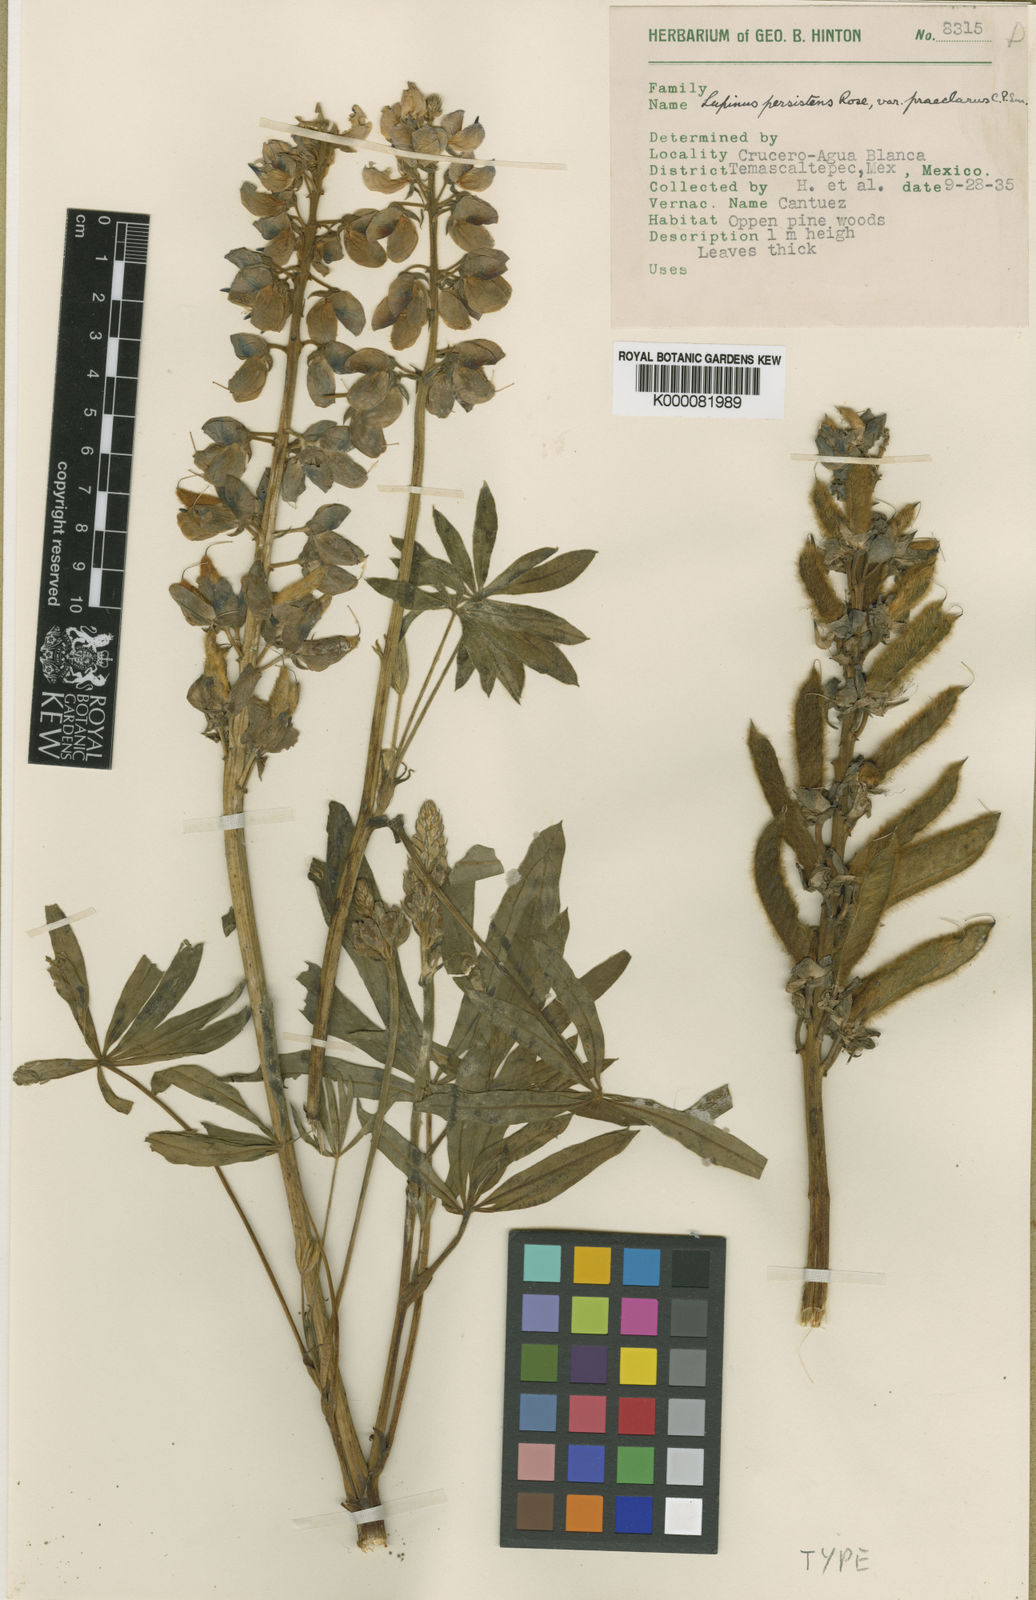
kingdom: Plantae
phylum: Tracheophyta
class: Magnoliopsida
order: Fabales
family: Fabaceae
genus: Lupinus
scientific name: Lupinus persistens
